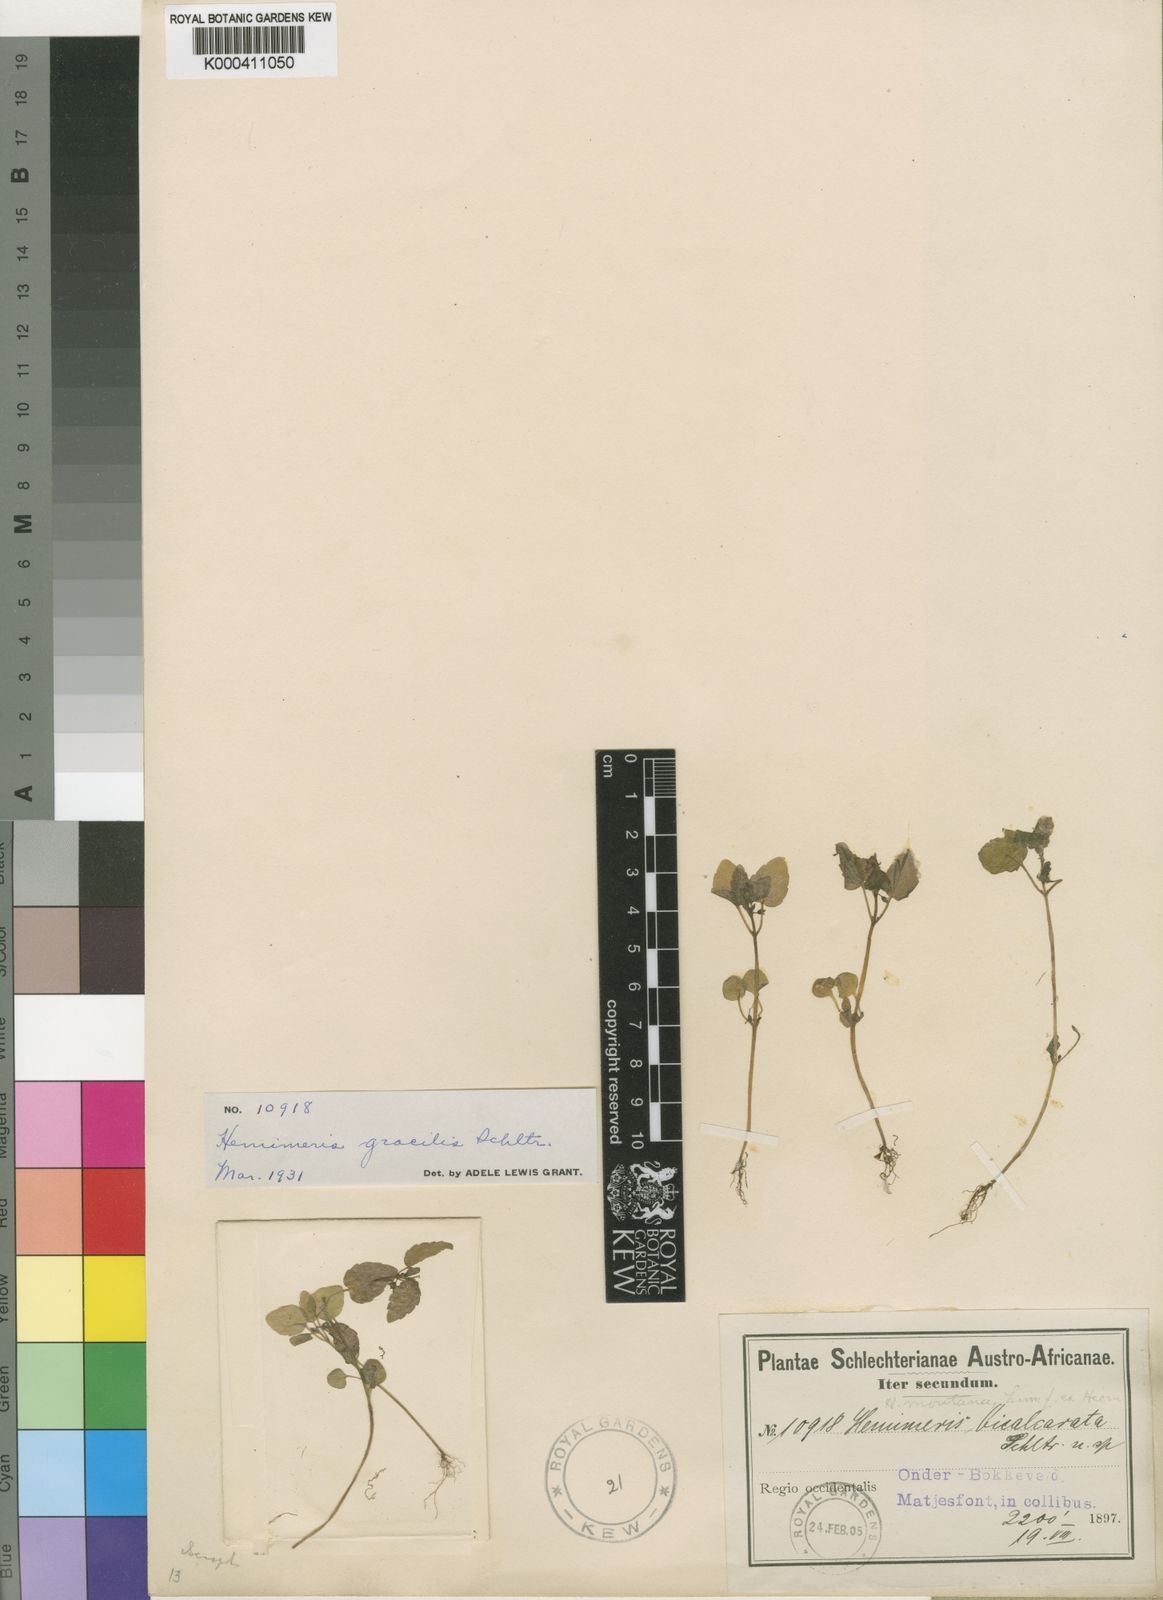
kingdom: Plantae
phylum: Tracheophyta
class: Magnoliopsida
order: Lamiales
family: Scrophulariaceae
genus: Hemimeris
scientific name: Hemimeris gracilis
